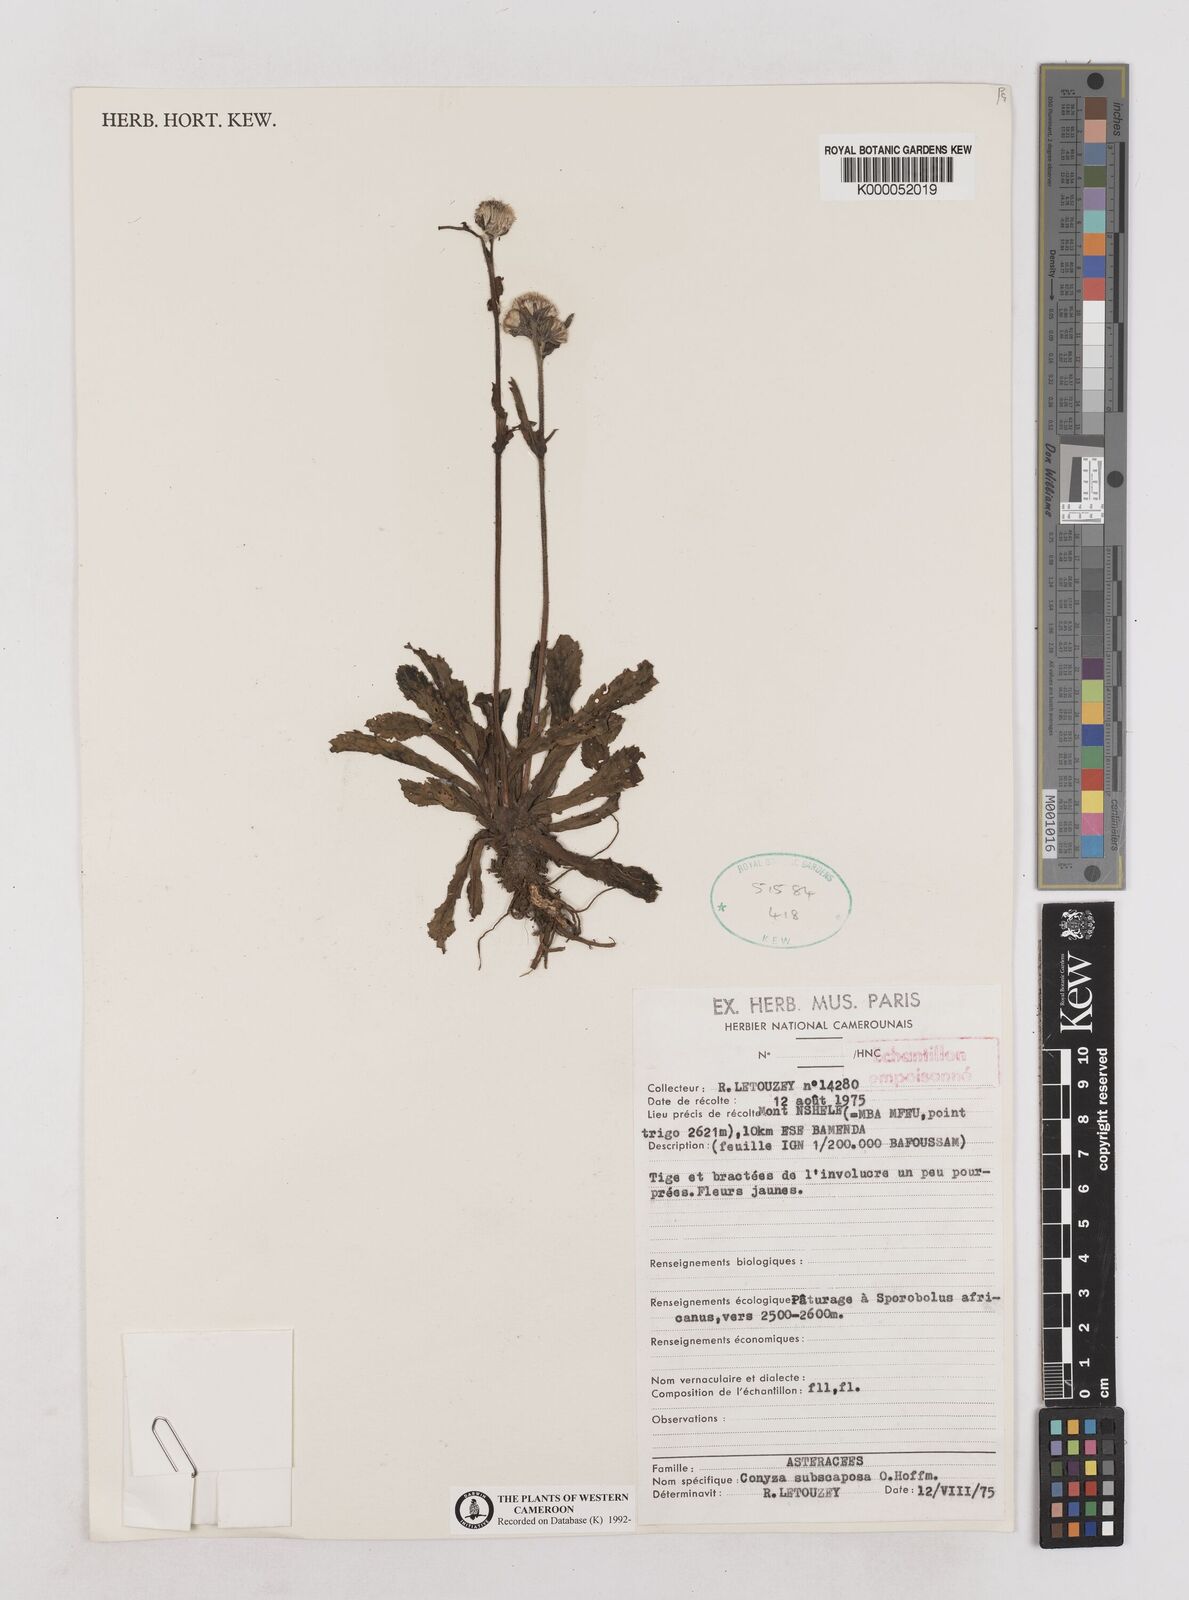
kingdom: Plantae
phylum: Tracheophyta
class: Magnoliopsida
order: Asterales
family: Asteraceae
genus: Eschenbachia
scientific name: Eschenbachia subscaposa
